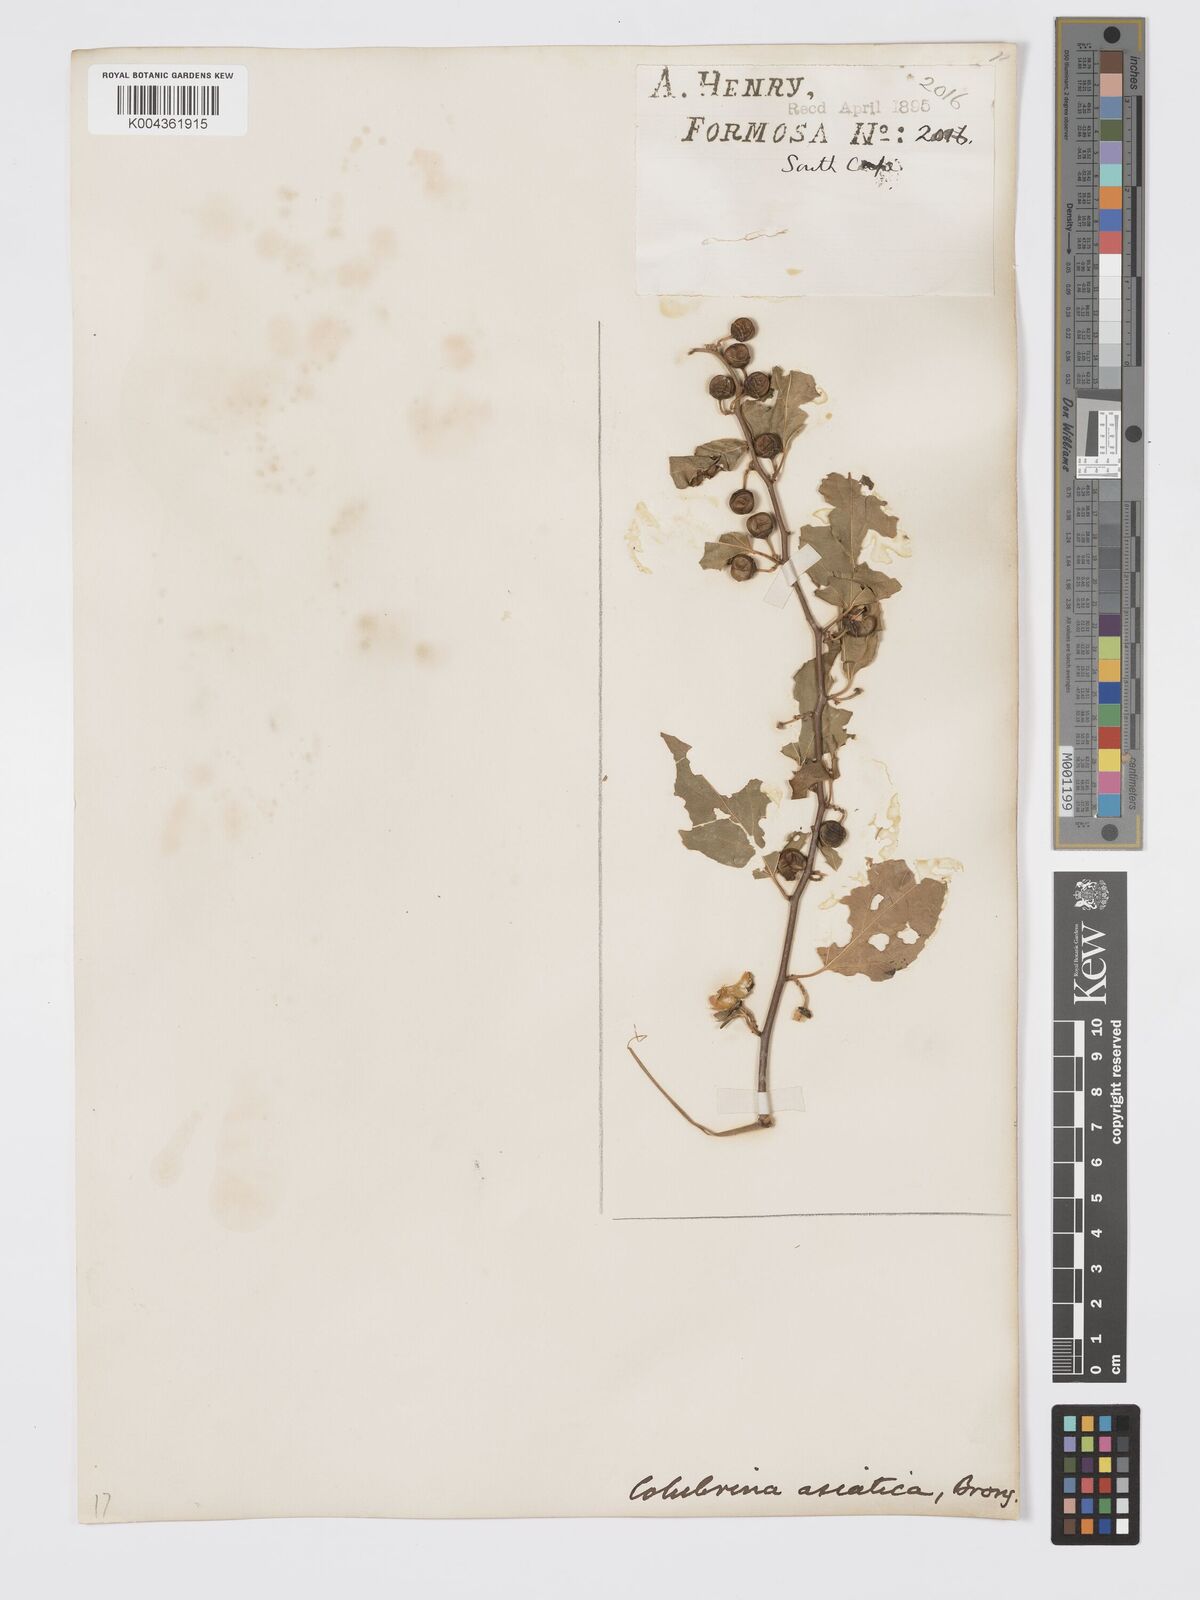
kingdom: Plantae
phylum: Tracheophyta
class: Magnoliopsida
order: Rosales
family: Rhamnaceae
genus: Colubrina
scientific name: Colubrina asiatica
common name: Asian nakedwood
